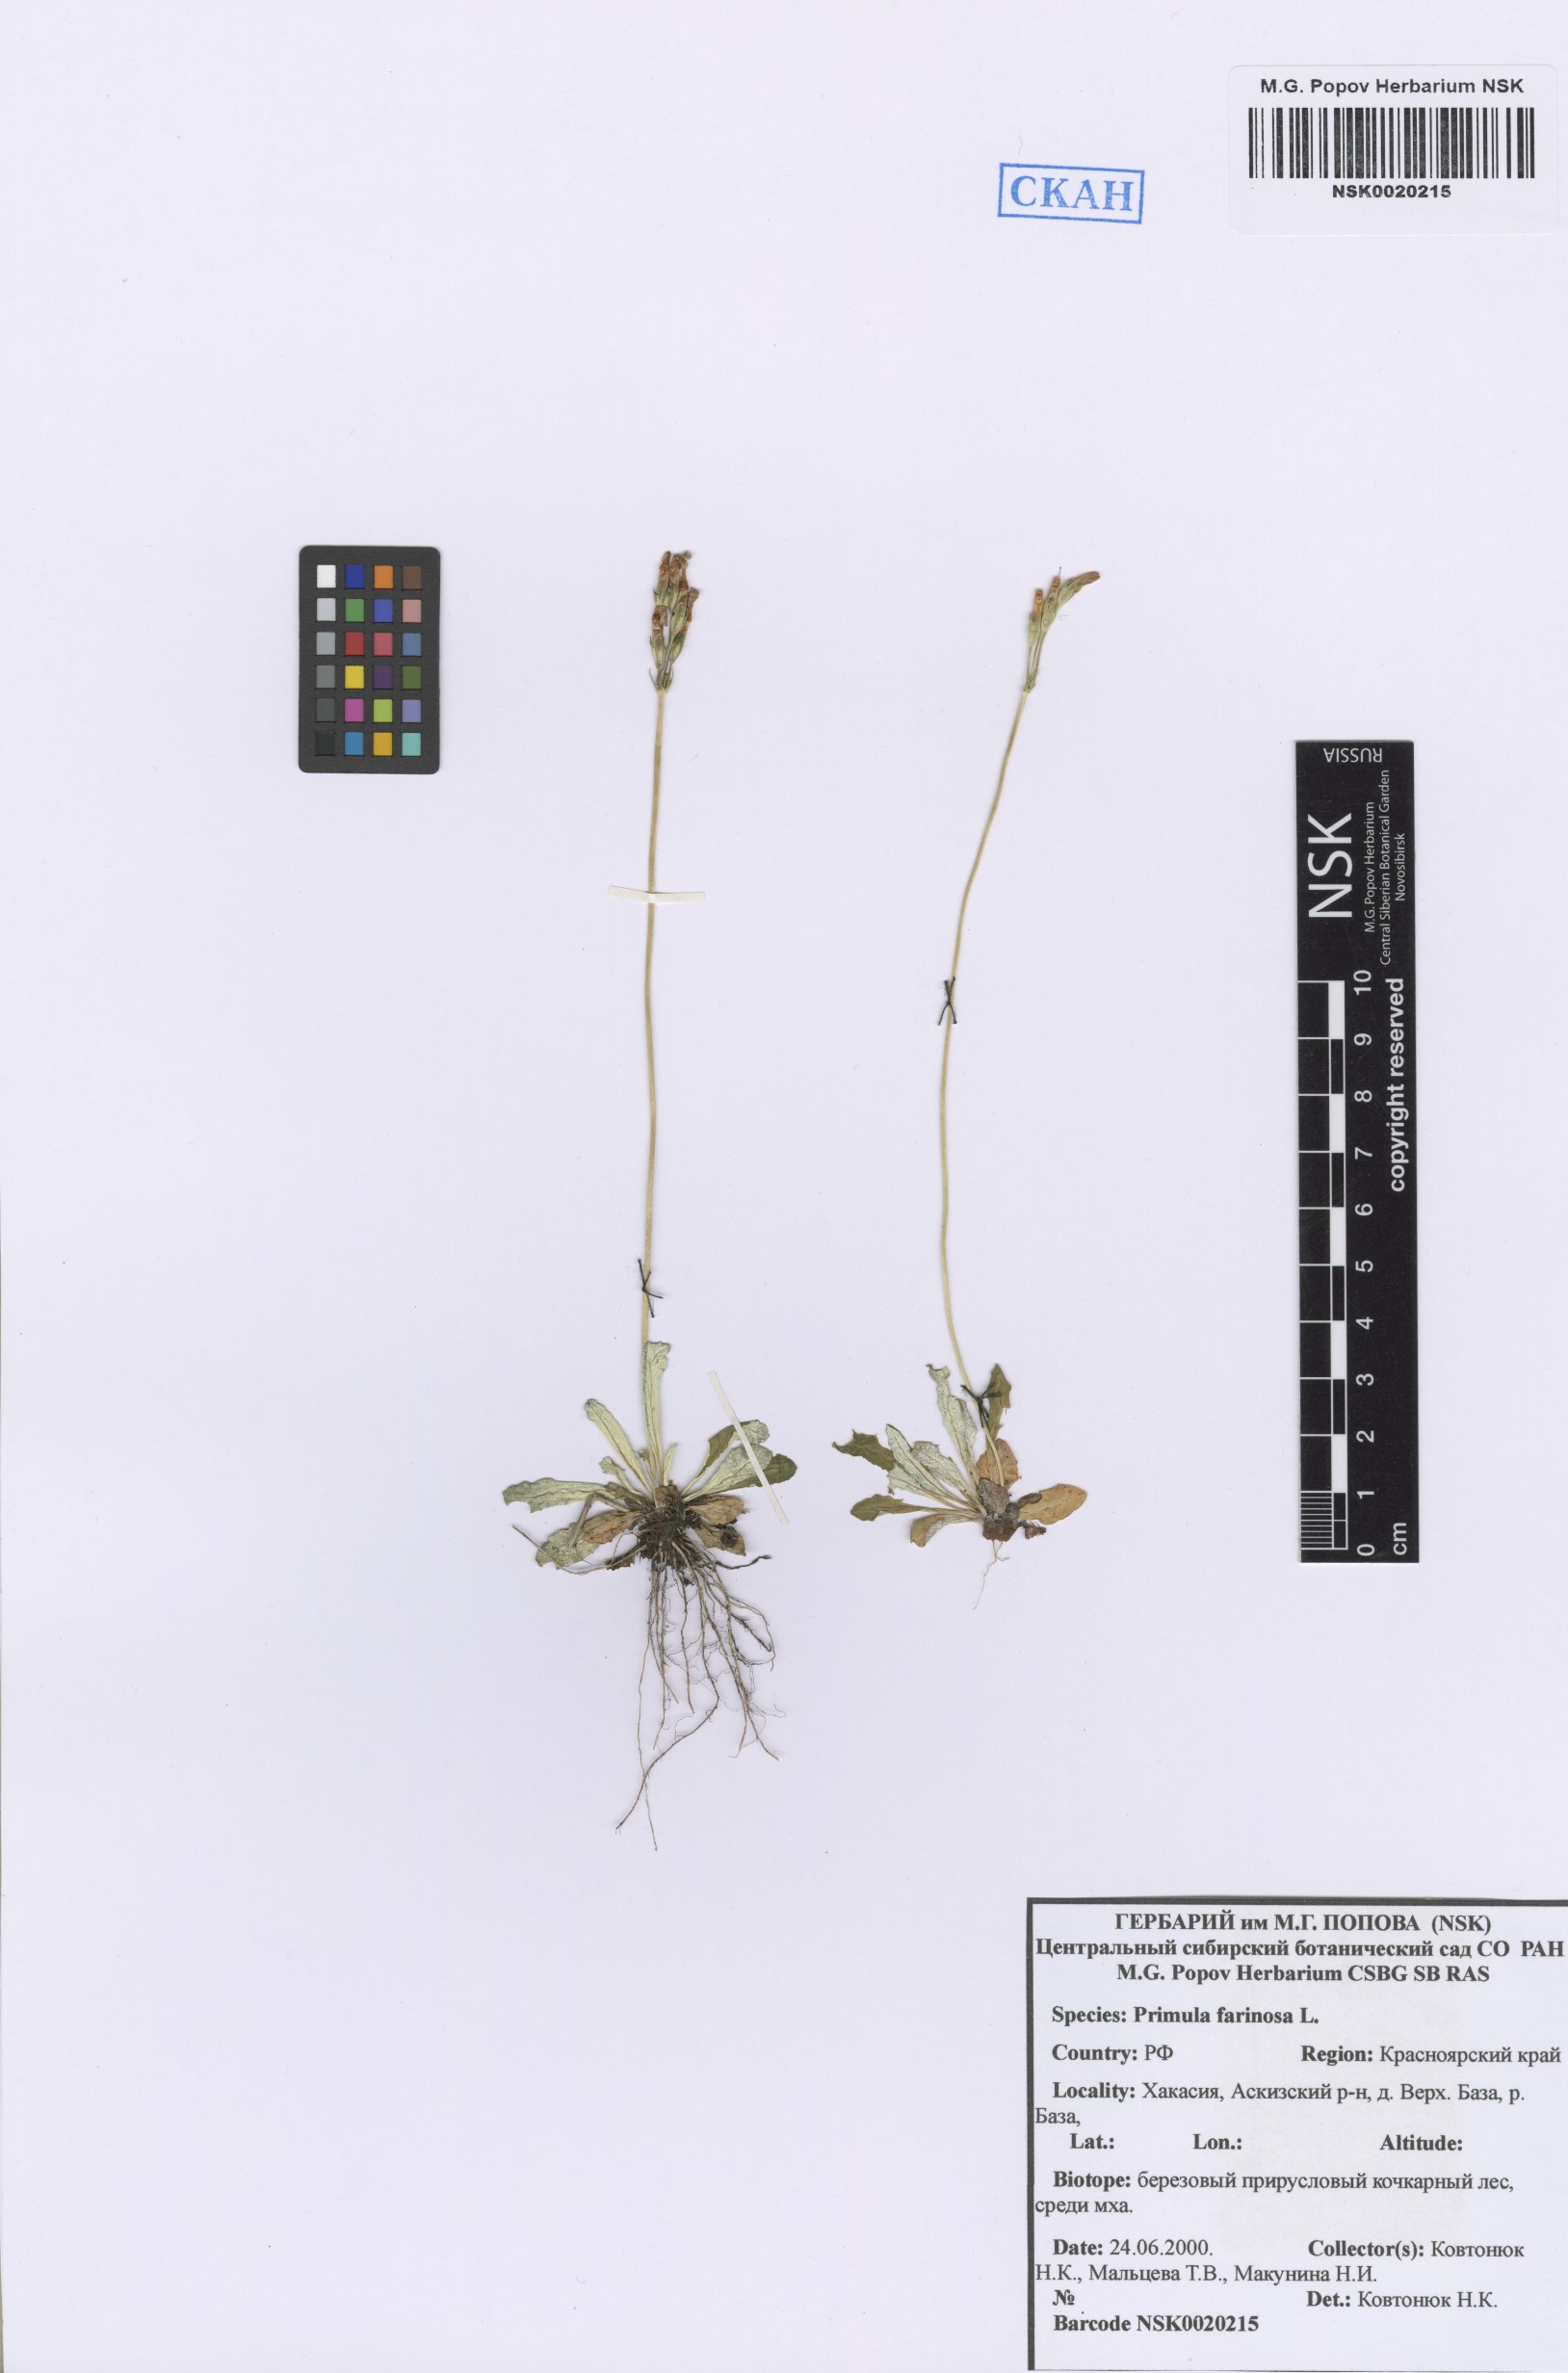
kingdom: Plantae
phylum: Tracheophyta
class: Magnoliopsida
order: Ericales
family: Primulaceae
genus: Primula
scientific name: Primula farinosa
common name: Bird's-eye primrose
